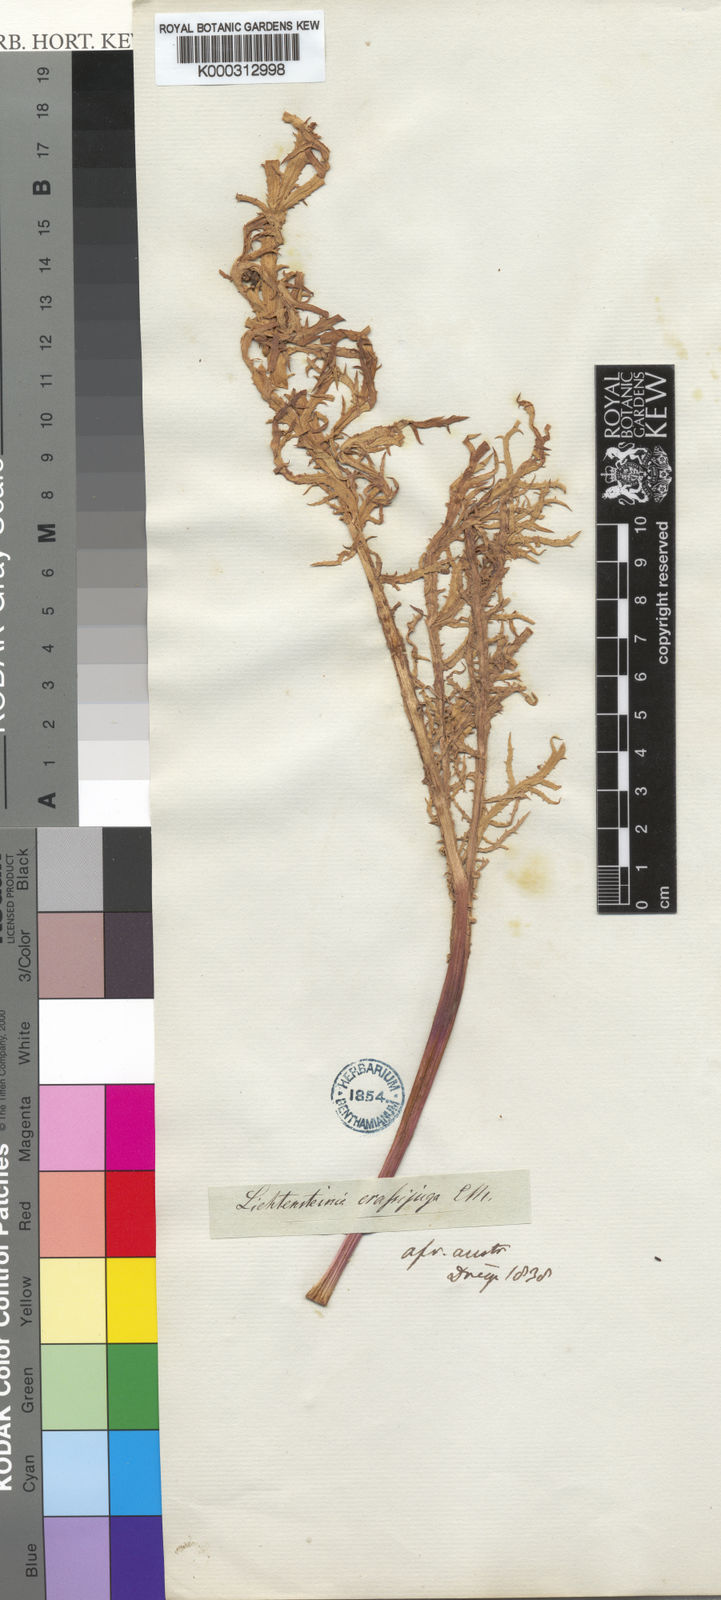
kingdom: Plantae
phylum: Tracheophyta
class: Magnoliopsida
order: Apiales
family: Apiaceae
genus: Lichtensteinia
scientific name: Lichtensteinia crassijuga
